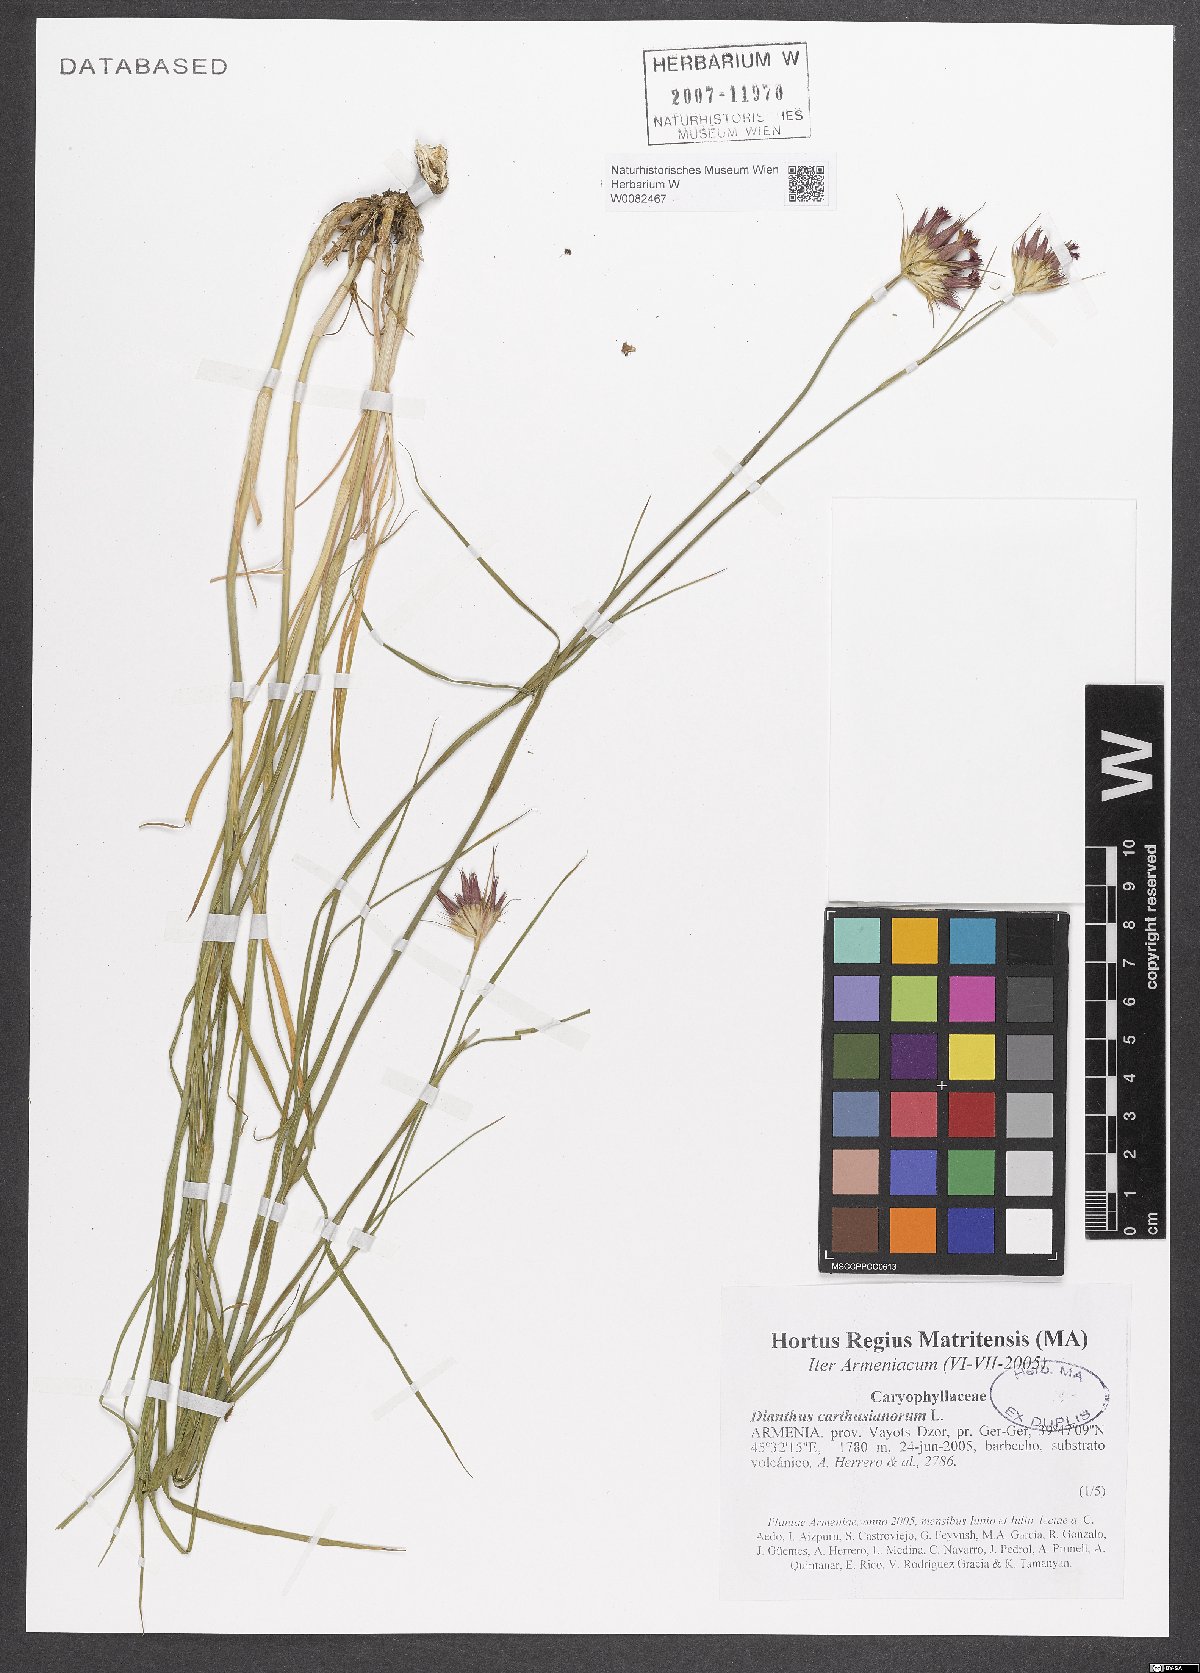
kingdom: Plantae
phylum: Tracheophyta
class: Magnoliopsida
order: Caryophyllales
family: Caryophyllaceae
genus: Dianthus
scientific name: Dianthus carthusianorum
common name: Carthusian pink
